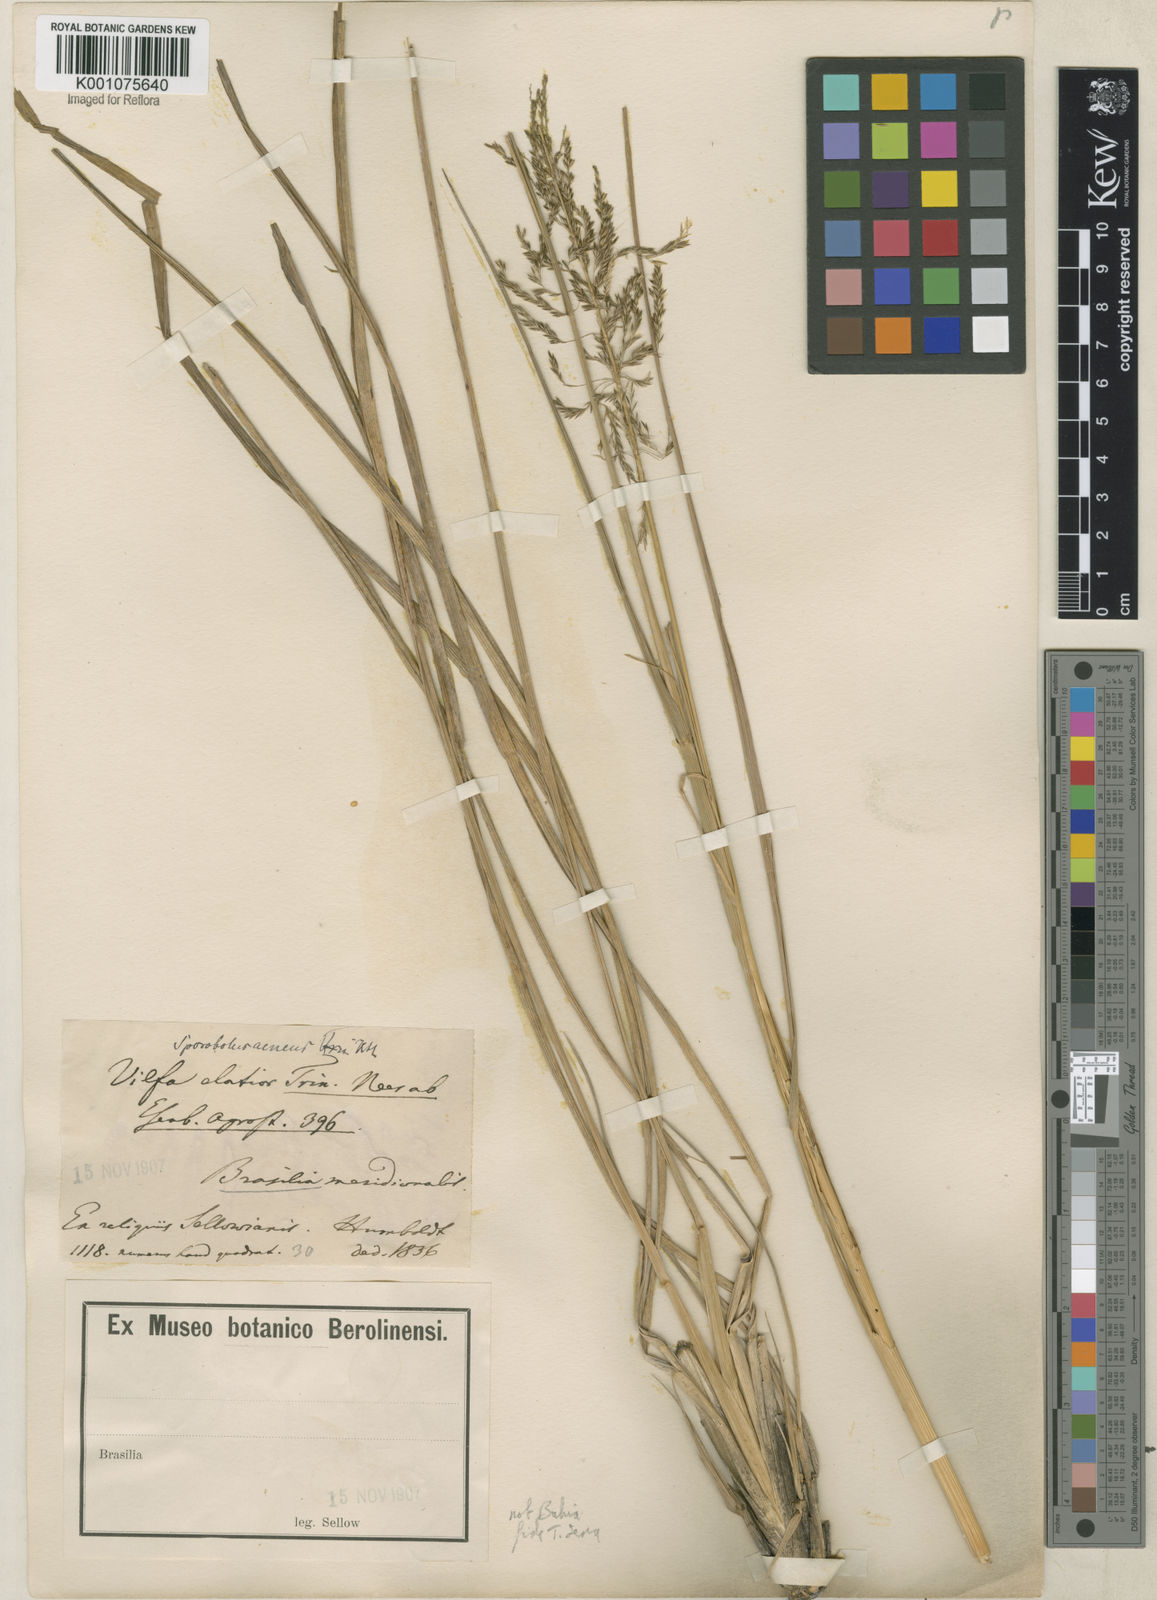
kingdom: Plantae
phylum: Tracheophyta
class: Liliopsida
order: Poales
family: Poaceae
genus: Sporobolus
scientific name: Sporobolus aeneus
